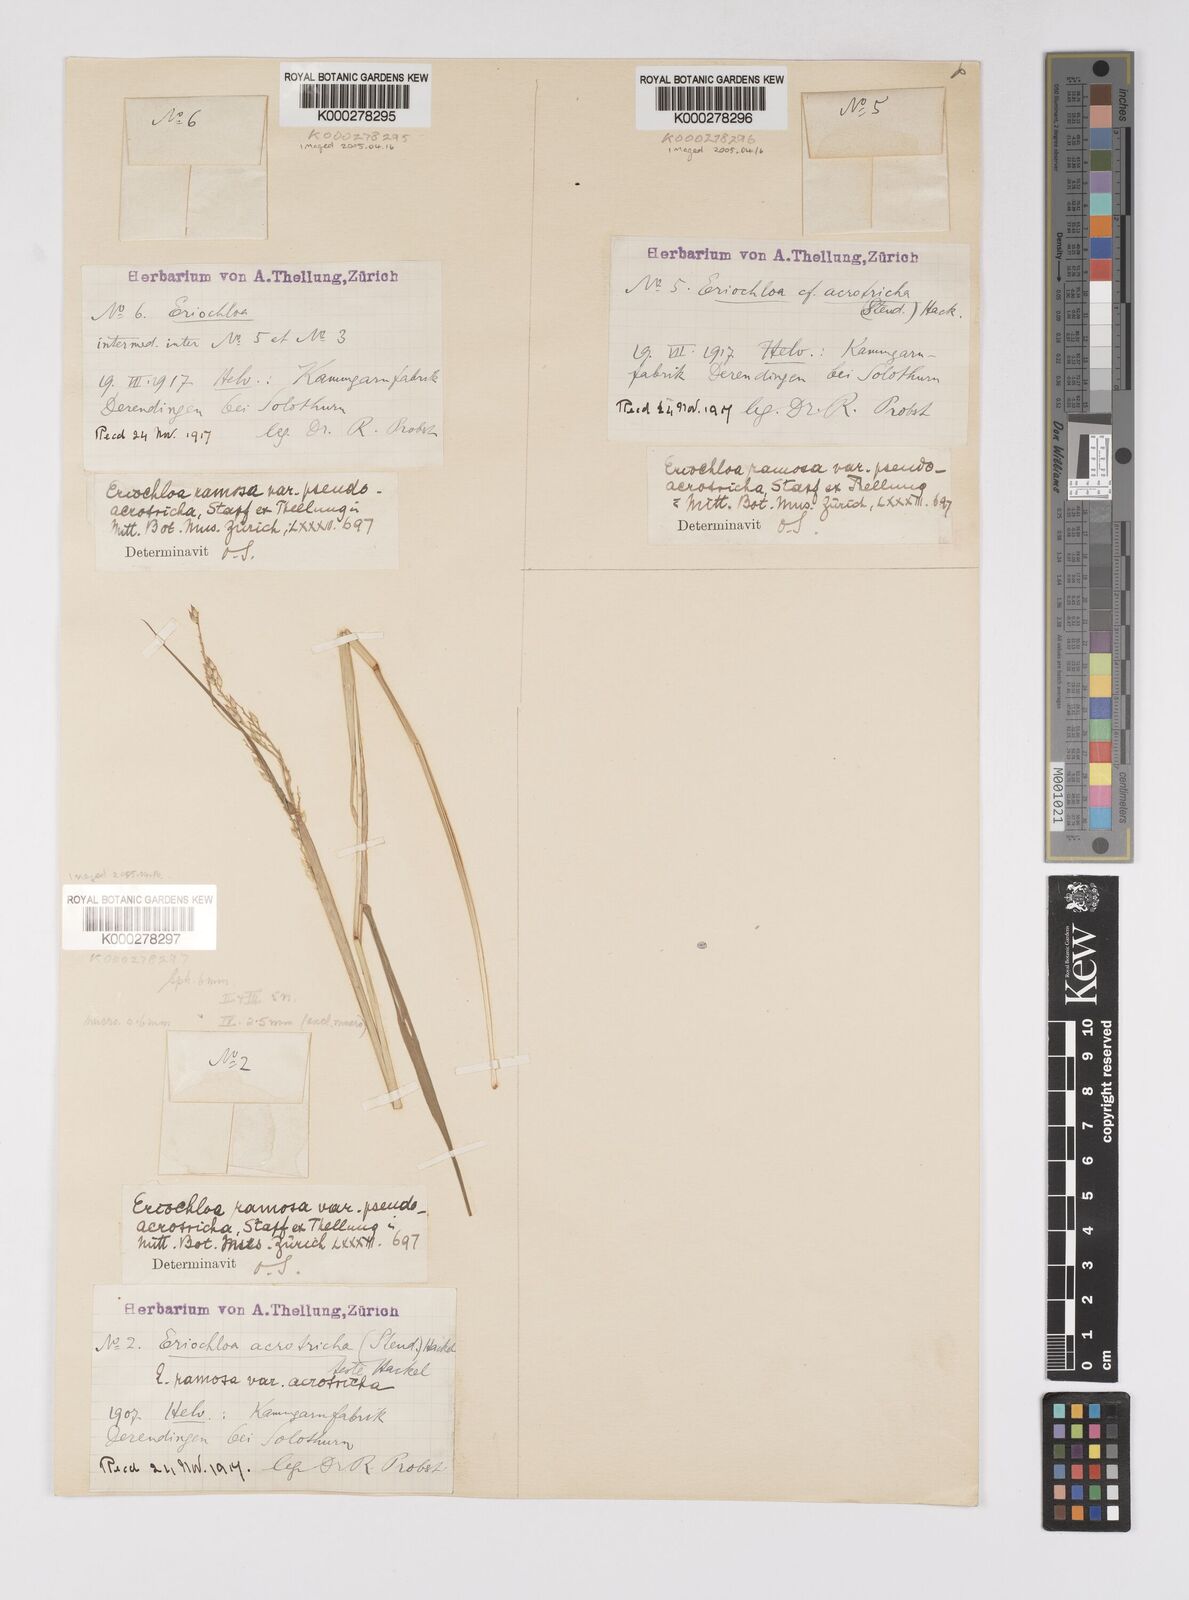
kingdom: Plantae
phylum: Tracheophyta
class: Liliopsida
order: Poales
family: Poaceae
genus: Eriochloa
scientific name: Eriochloa pseudoacrotricha
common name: Perennial cup-grass
